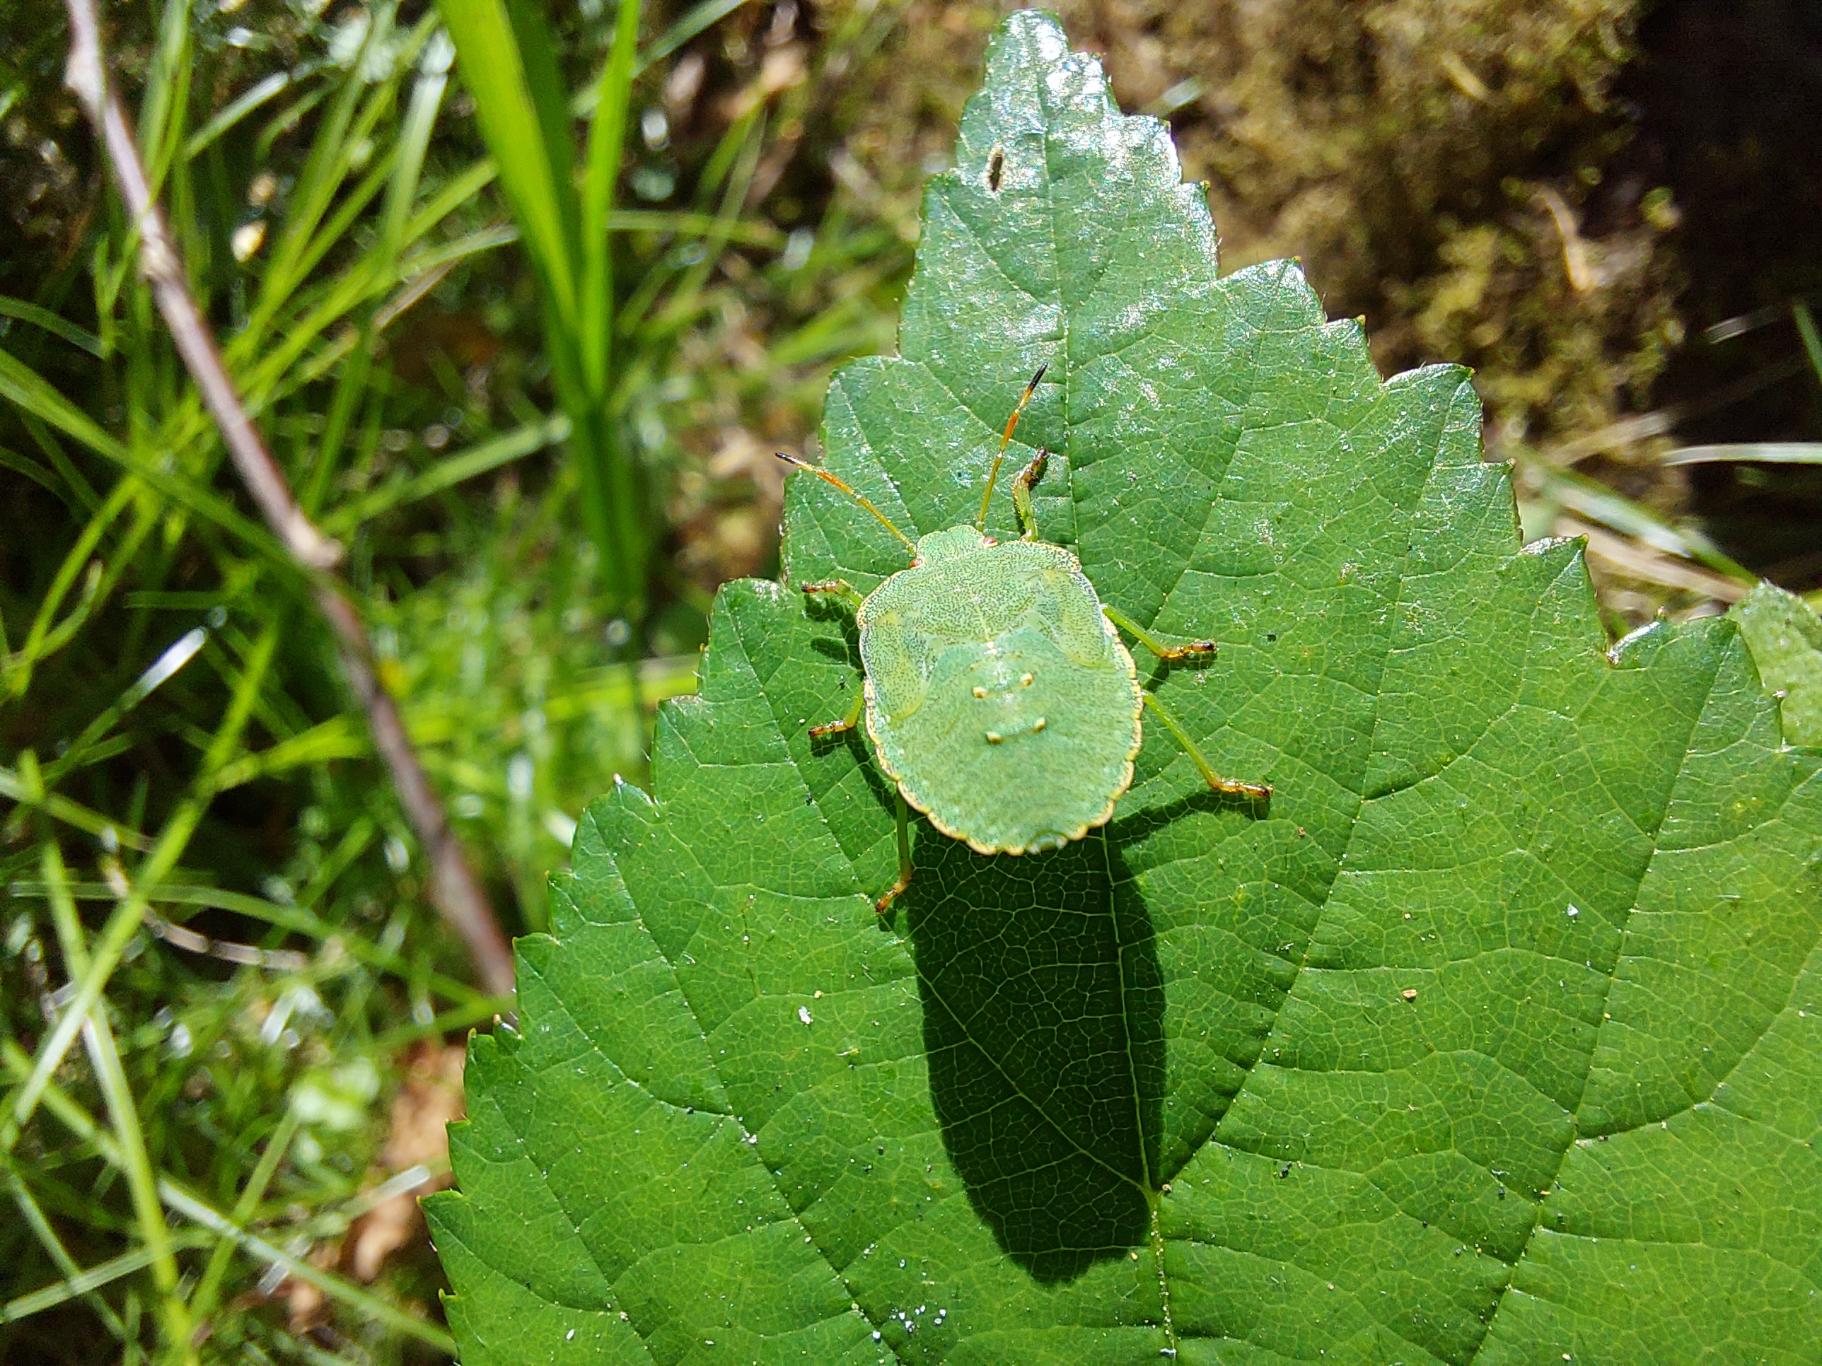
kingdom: Animalia
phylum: Arthropoda
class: Insecta
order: Hemiptera
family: Pentatomidae
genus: Palomena
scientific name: Palomena prasina
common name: Grøn bredtæge
